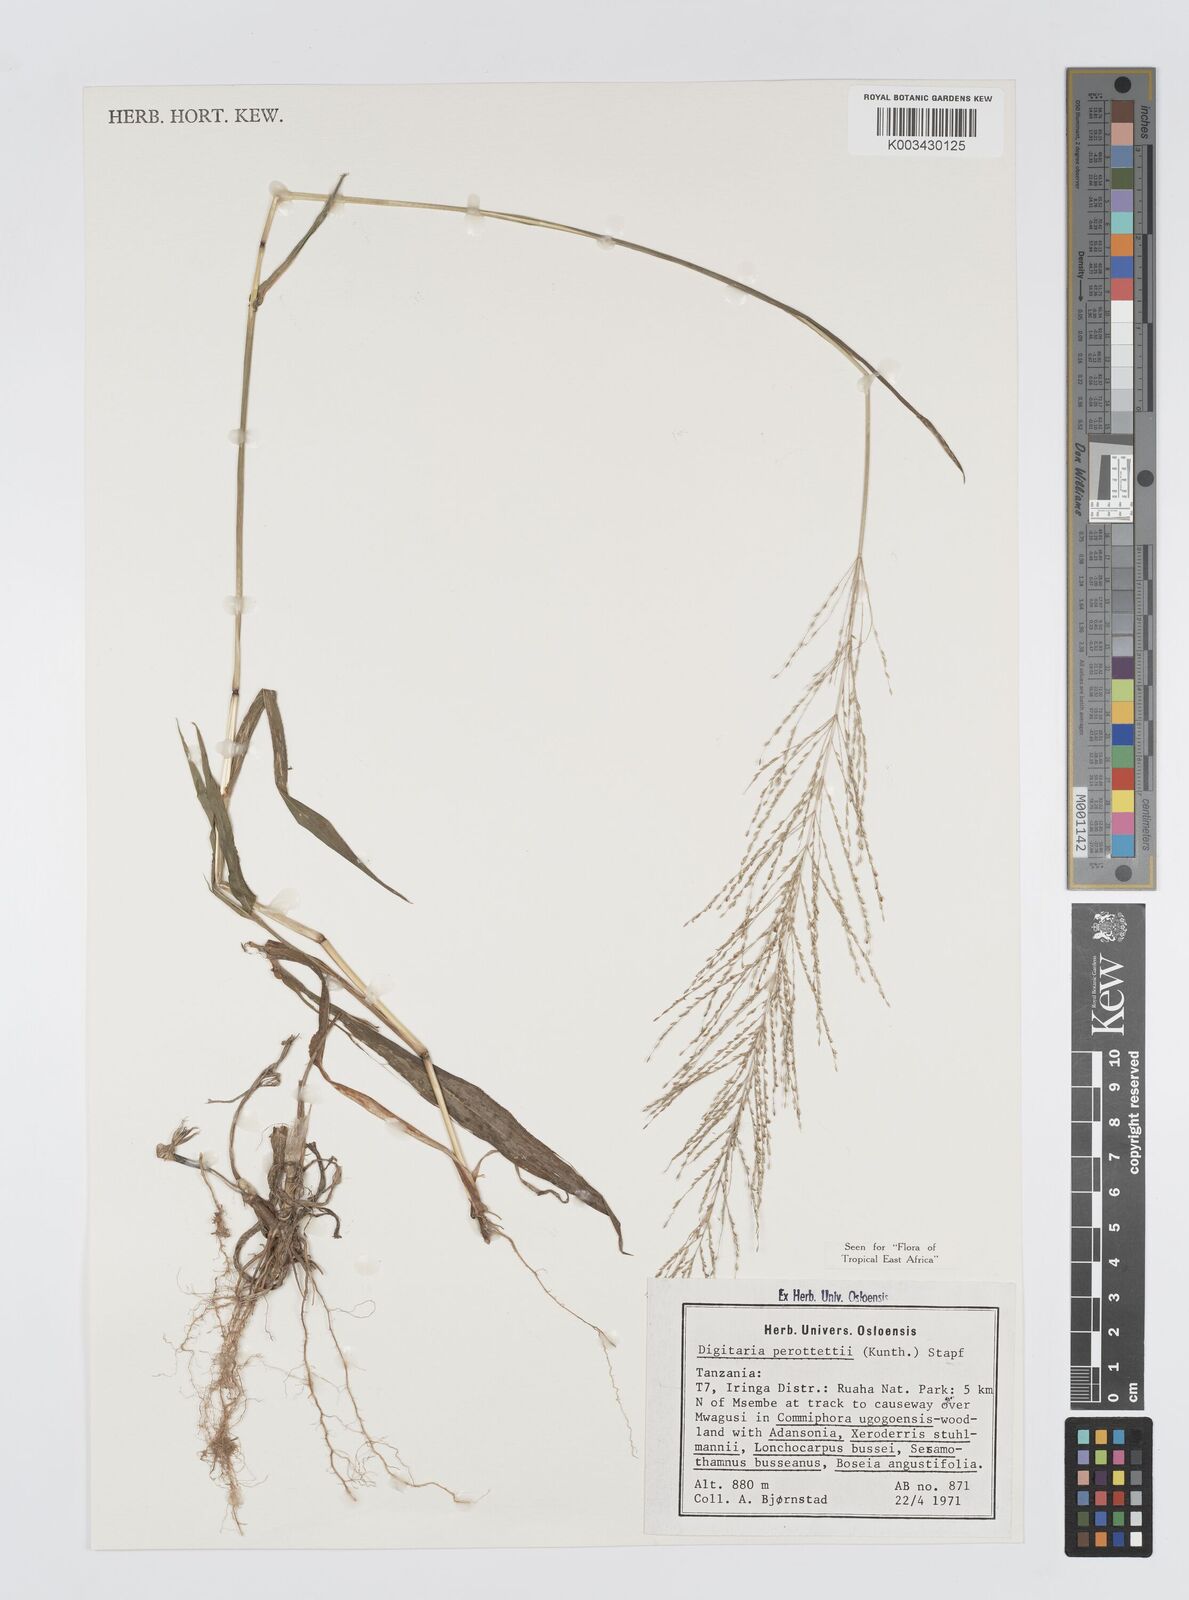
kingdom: Plantae
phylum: Tracheophyta
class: Liliopsida
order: Poales
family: Poaceae
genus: Digitaria
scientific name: Digitaria perrottetii
